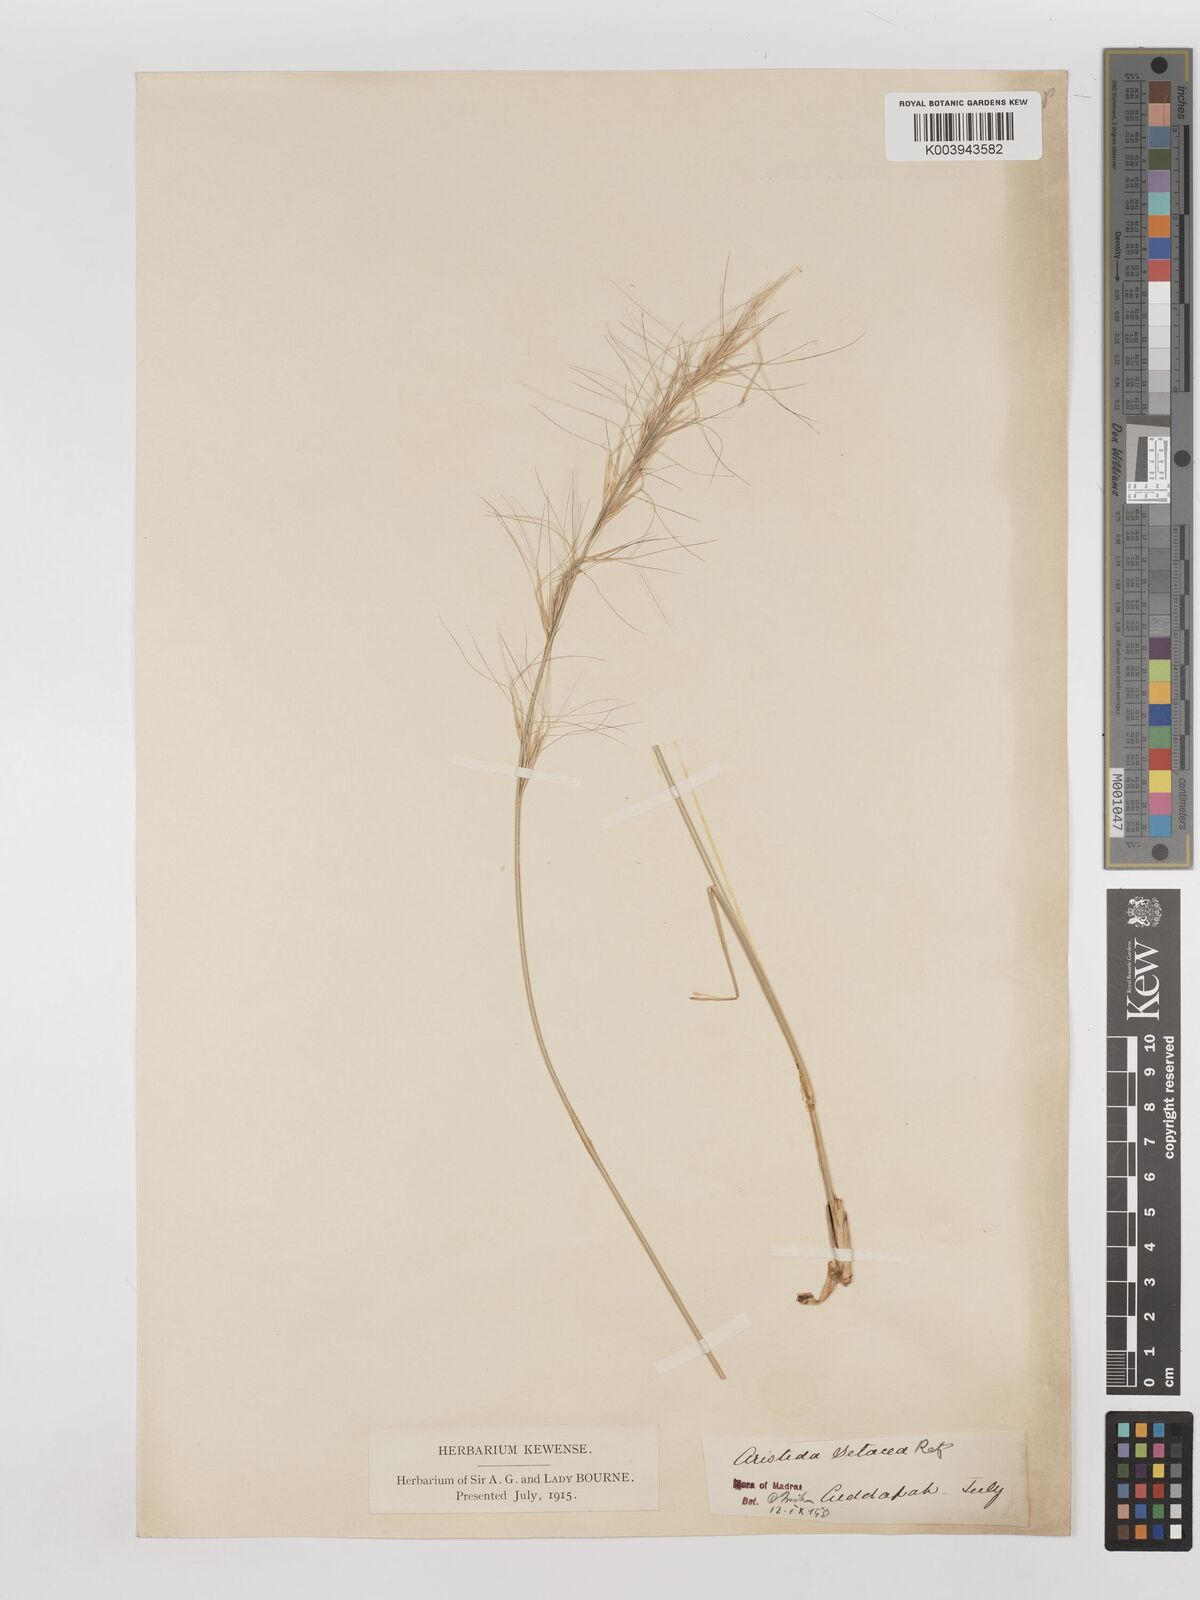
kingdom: Plantae
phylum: Tracheophyta
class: Liliopsida
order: Poales
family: Poaceae
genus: Aristida
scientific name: Aristida setacea
